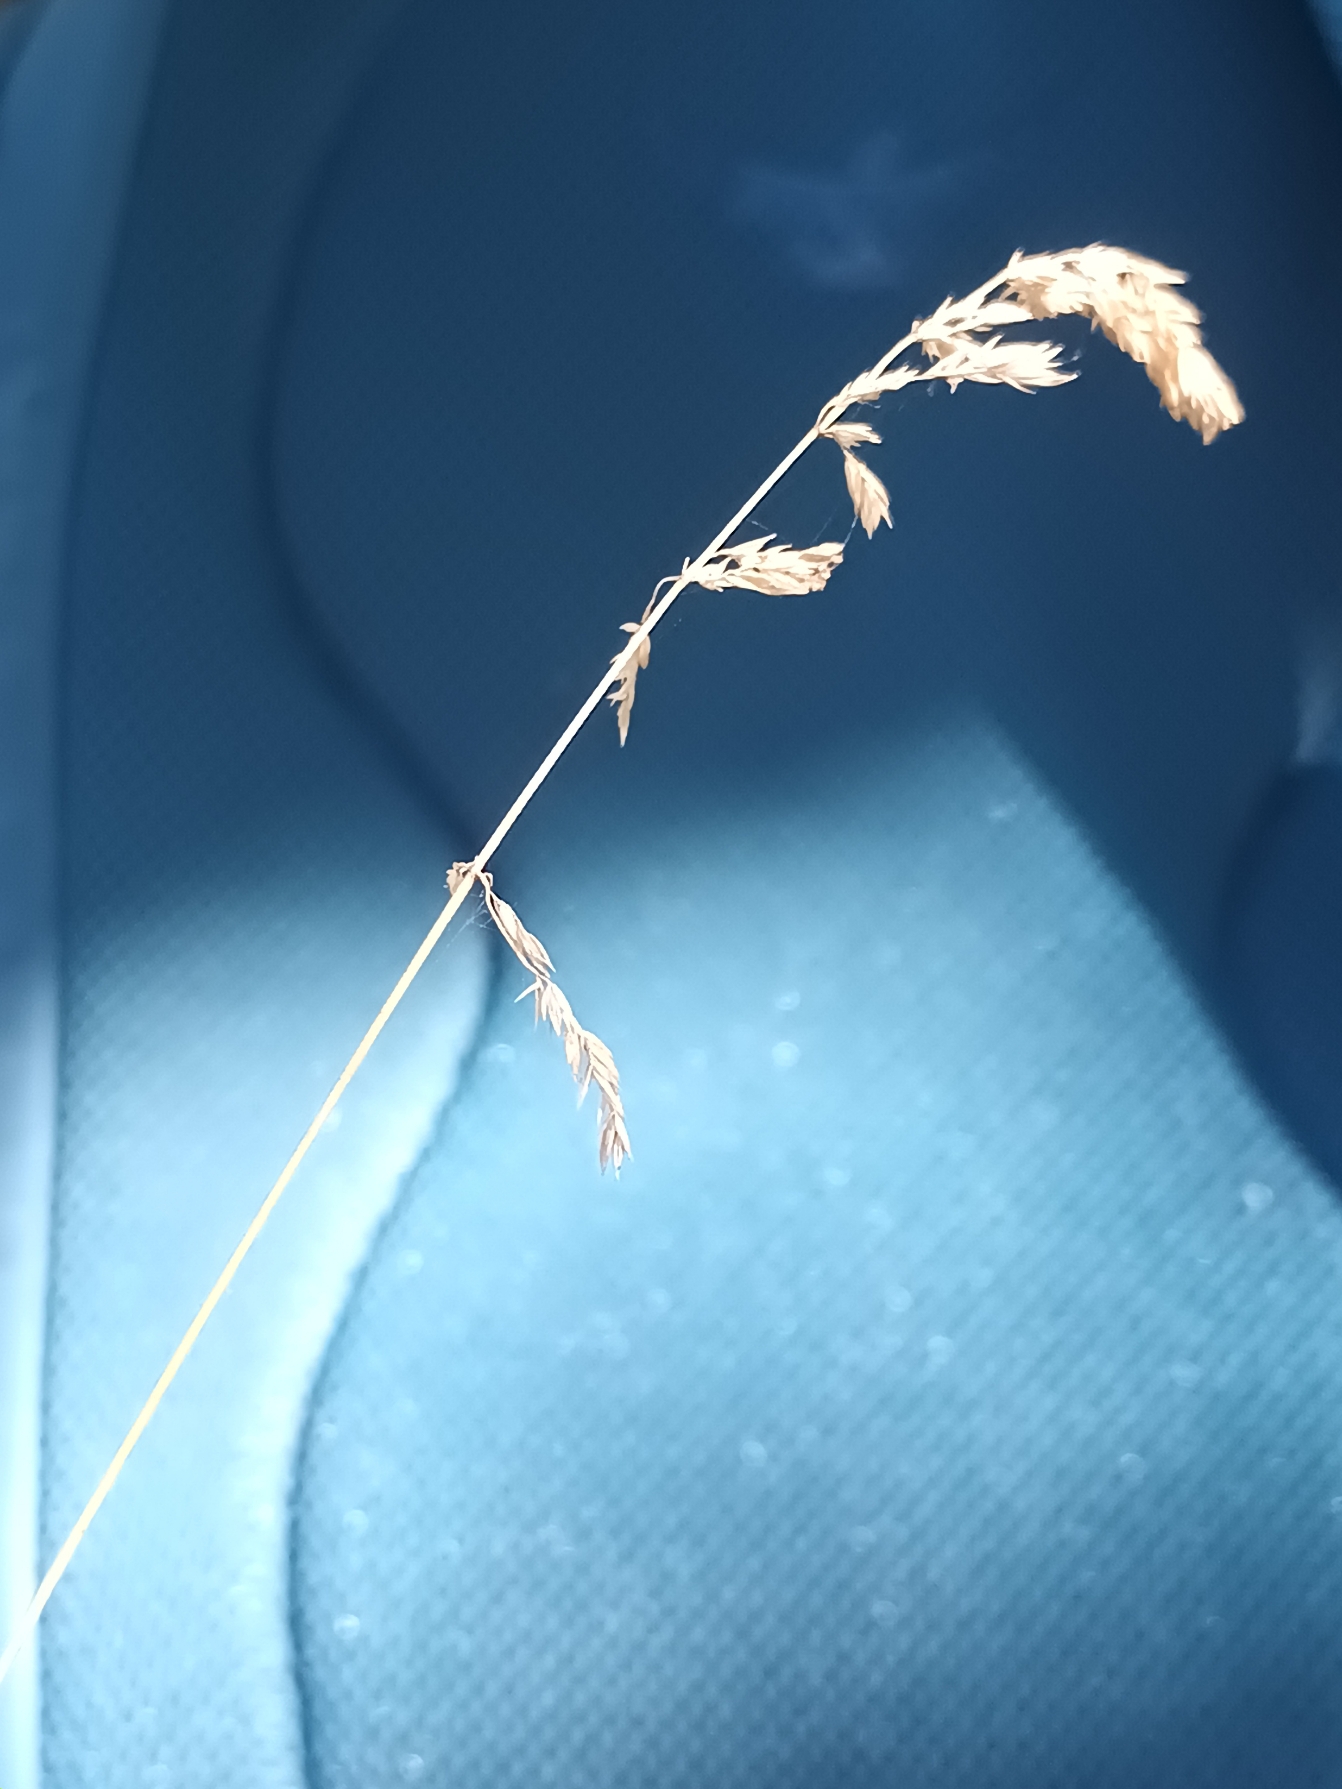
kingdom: Plantae
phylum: Tracheophyta
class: Liliopsida
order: Poales
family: Poaceae
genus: Poa
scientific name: Poa chaixii
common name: Sudetisk rapgræs
